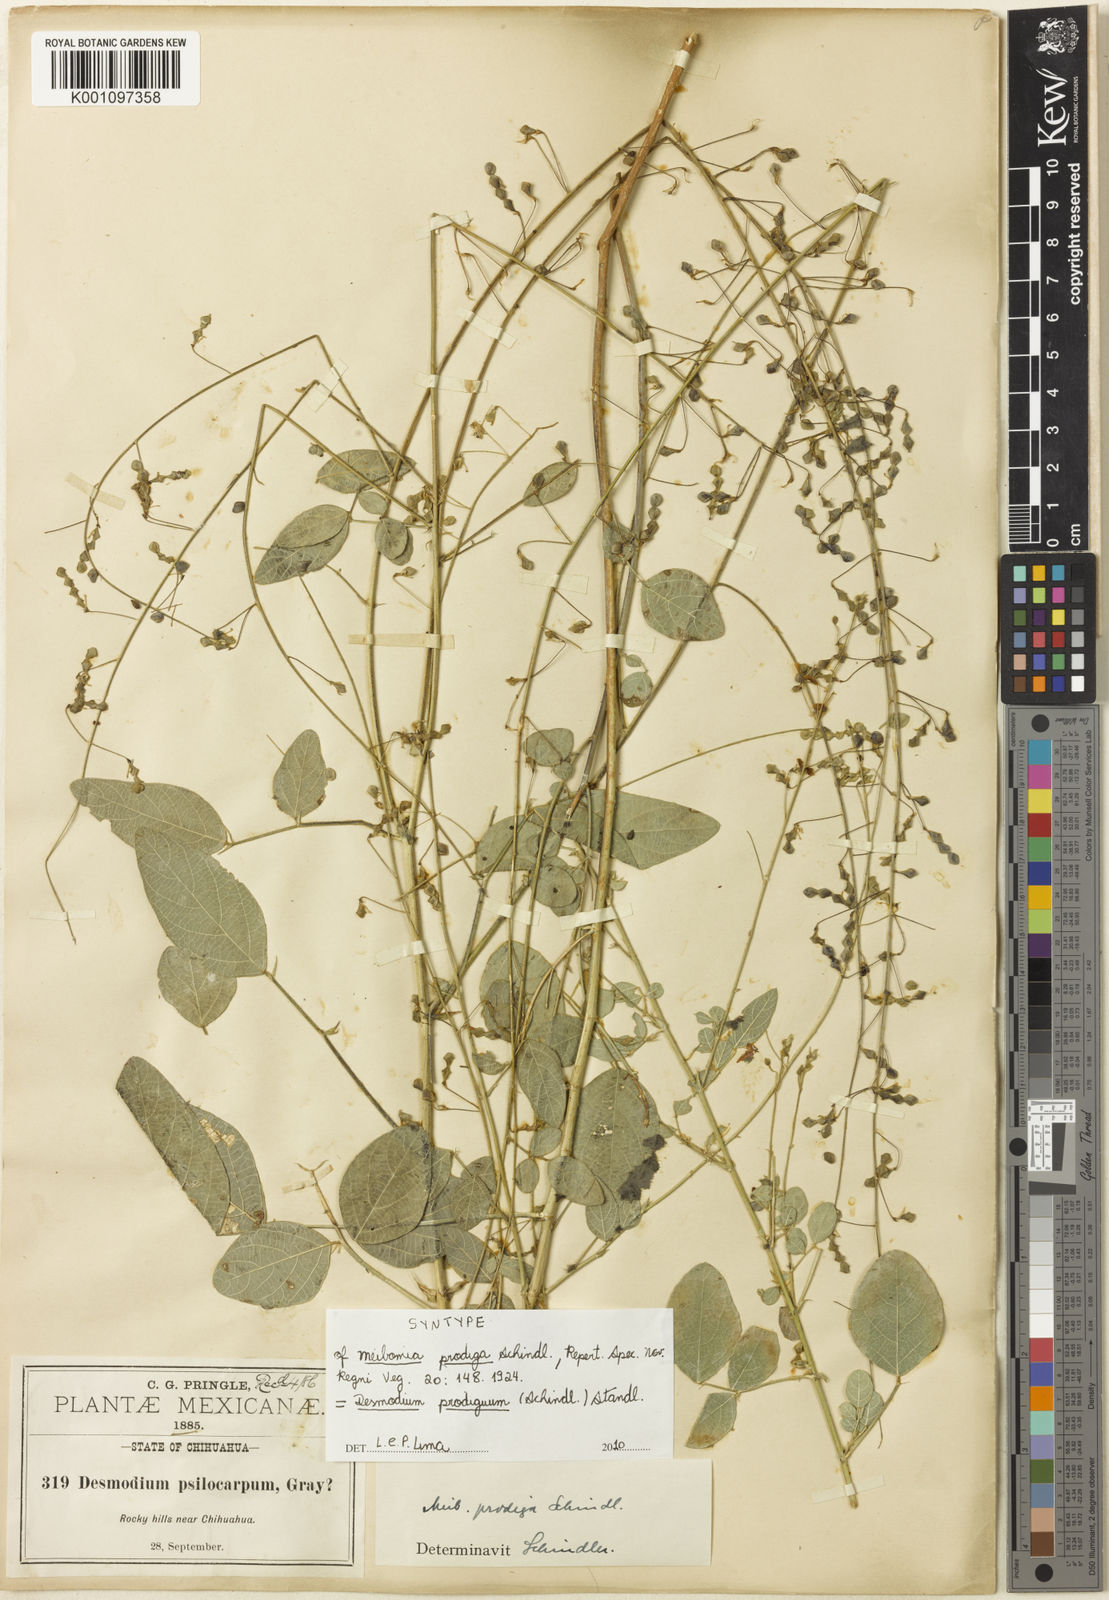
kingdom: Plantae
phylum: Tracheophyta
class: Magnoliopsida
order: Fabales
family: Fabaceae
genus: Desmodium
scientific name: Desmodium prodigum
